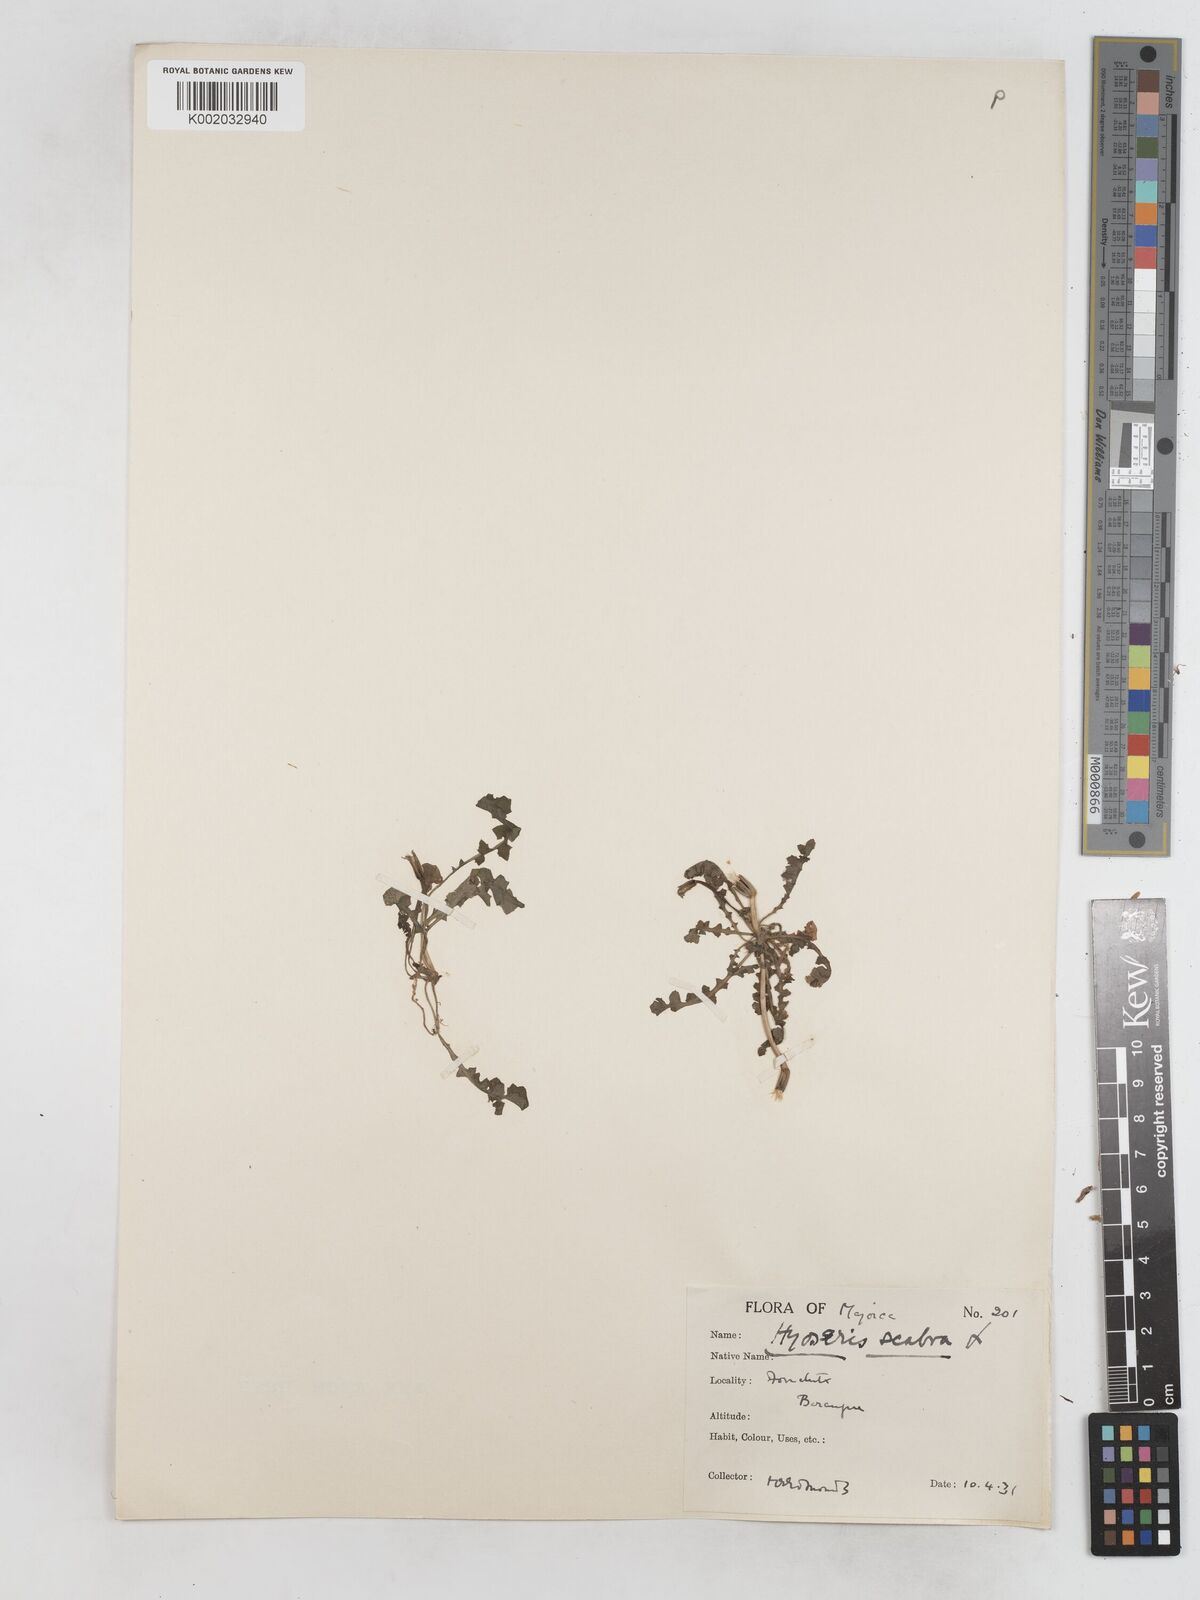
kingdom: Plantae
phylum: Tracheophyta
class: Magnoliopsida
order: Asterales
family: Asteraceae
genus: Hyoseris
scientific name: Hyoseris scabra
